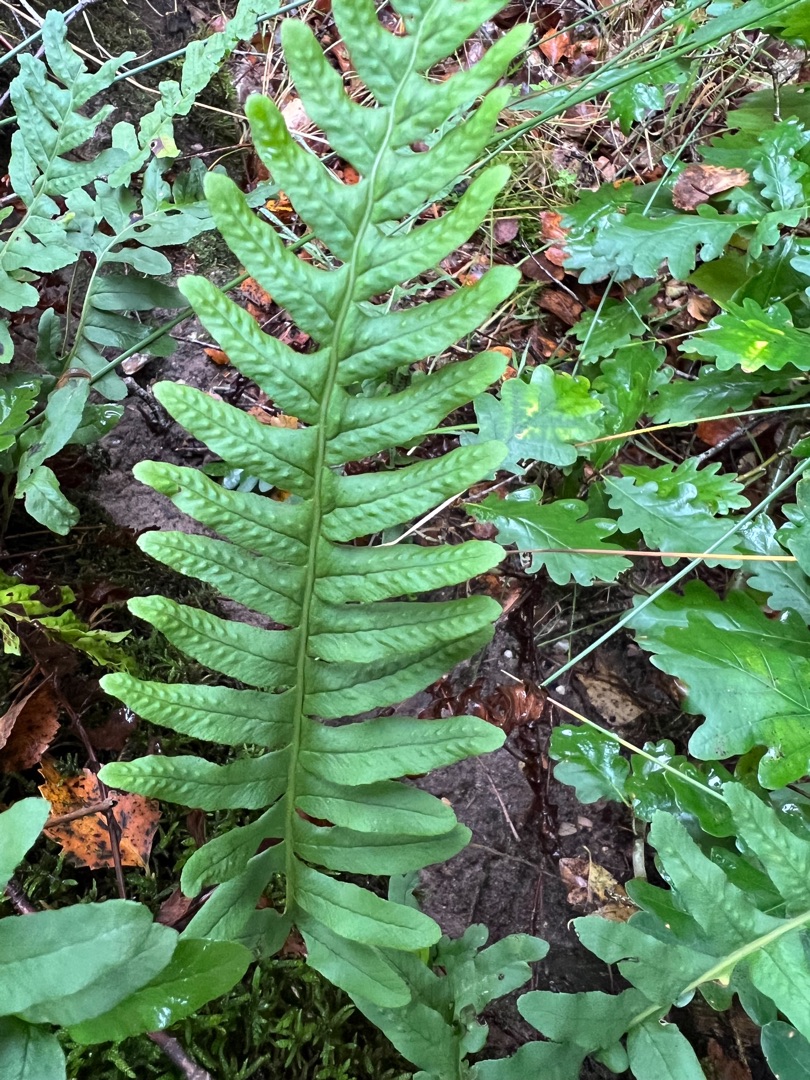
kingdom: Plantae
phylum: Tracheophyta
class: Polypodiopsida
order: Polypodiales
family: Polypodiaceae
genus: Polypodium
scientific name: Polypodium vulgare
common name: Almindelig engelsød
